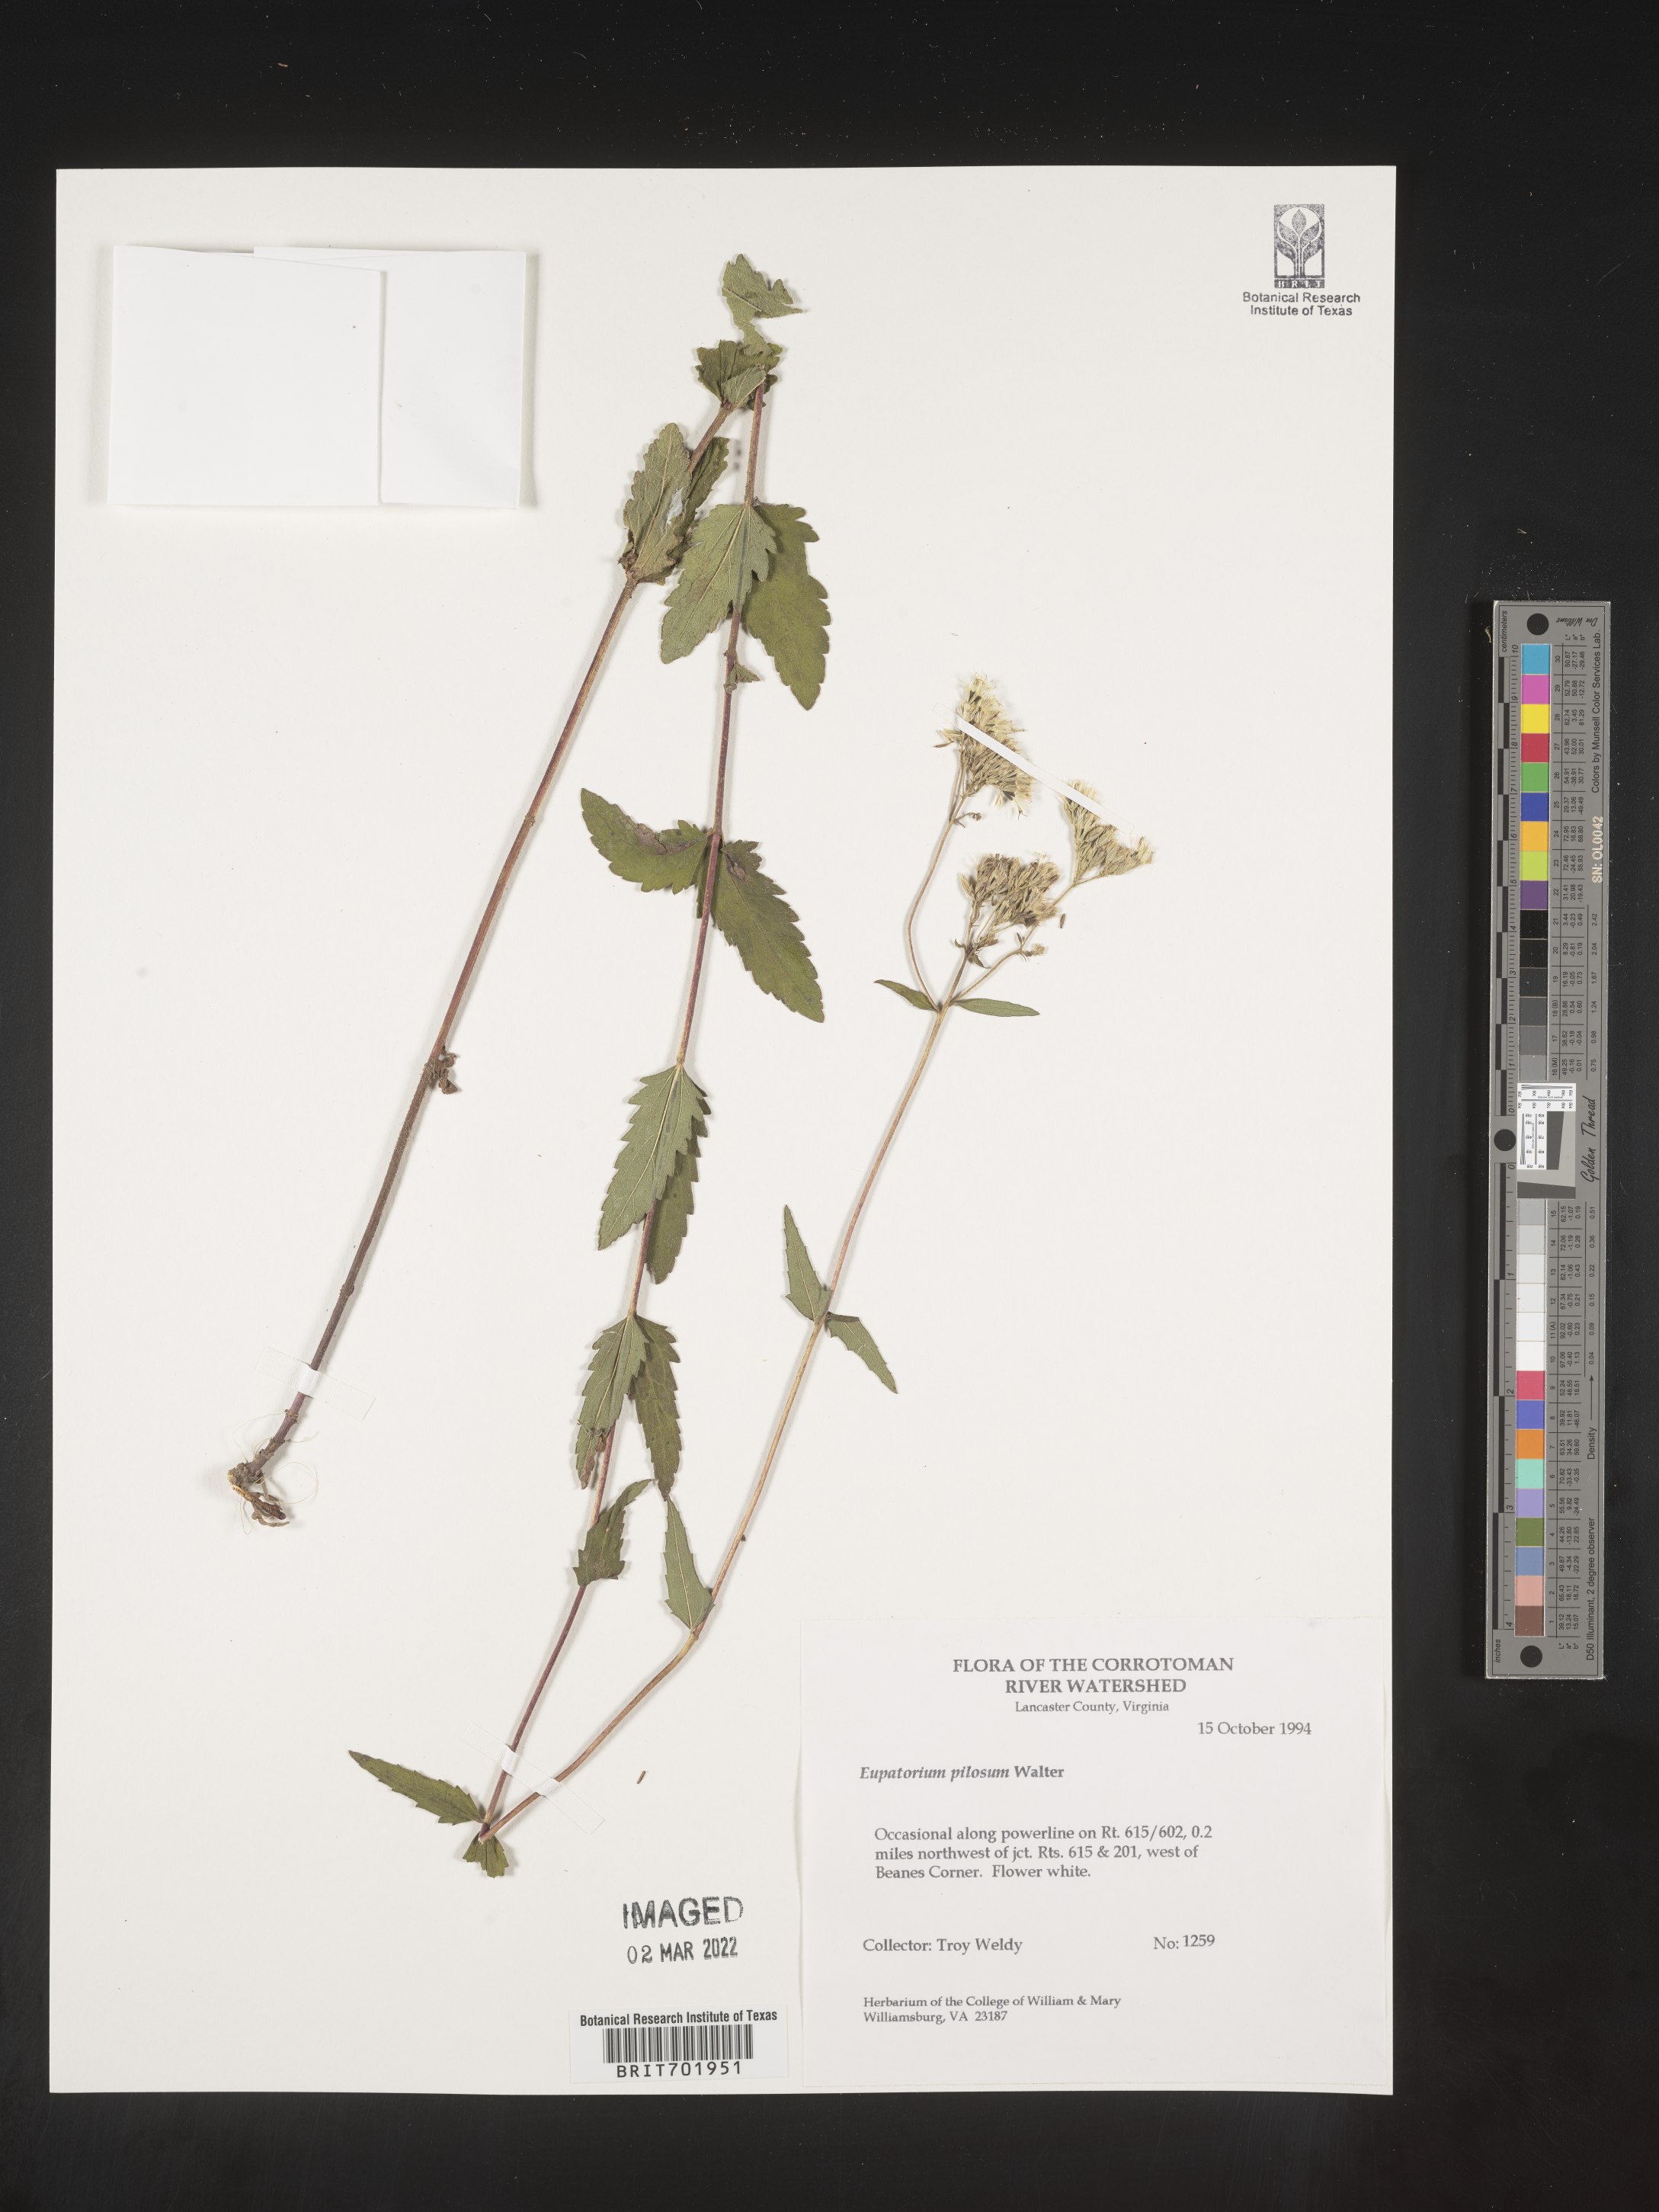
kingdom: Plantae
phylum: Tracheophyta
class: Magnoliopsida
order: Asterales
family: Asteraceae
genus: Eupatorium
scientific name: Eupatorium pilosum
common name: Rough boneset
